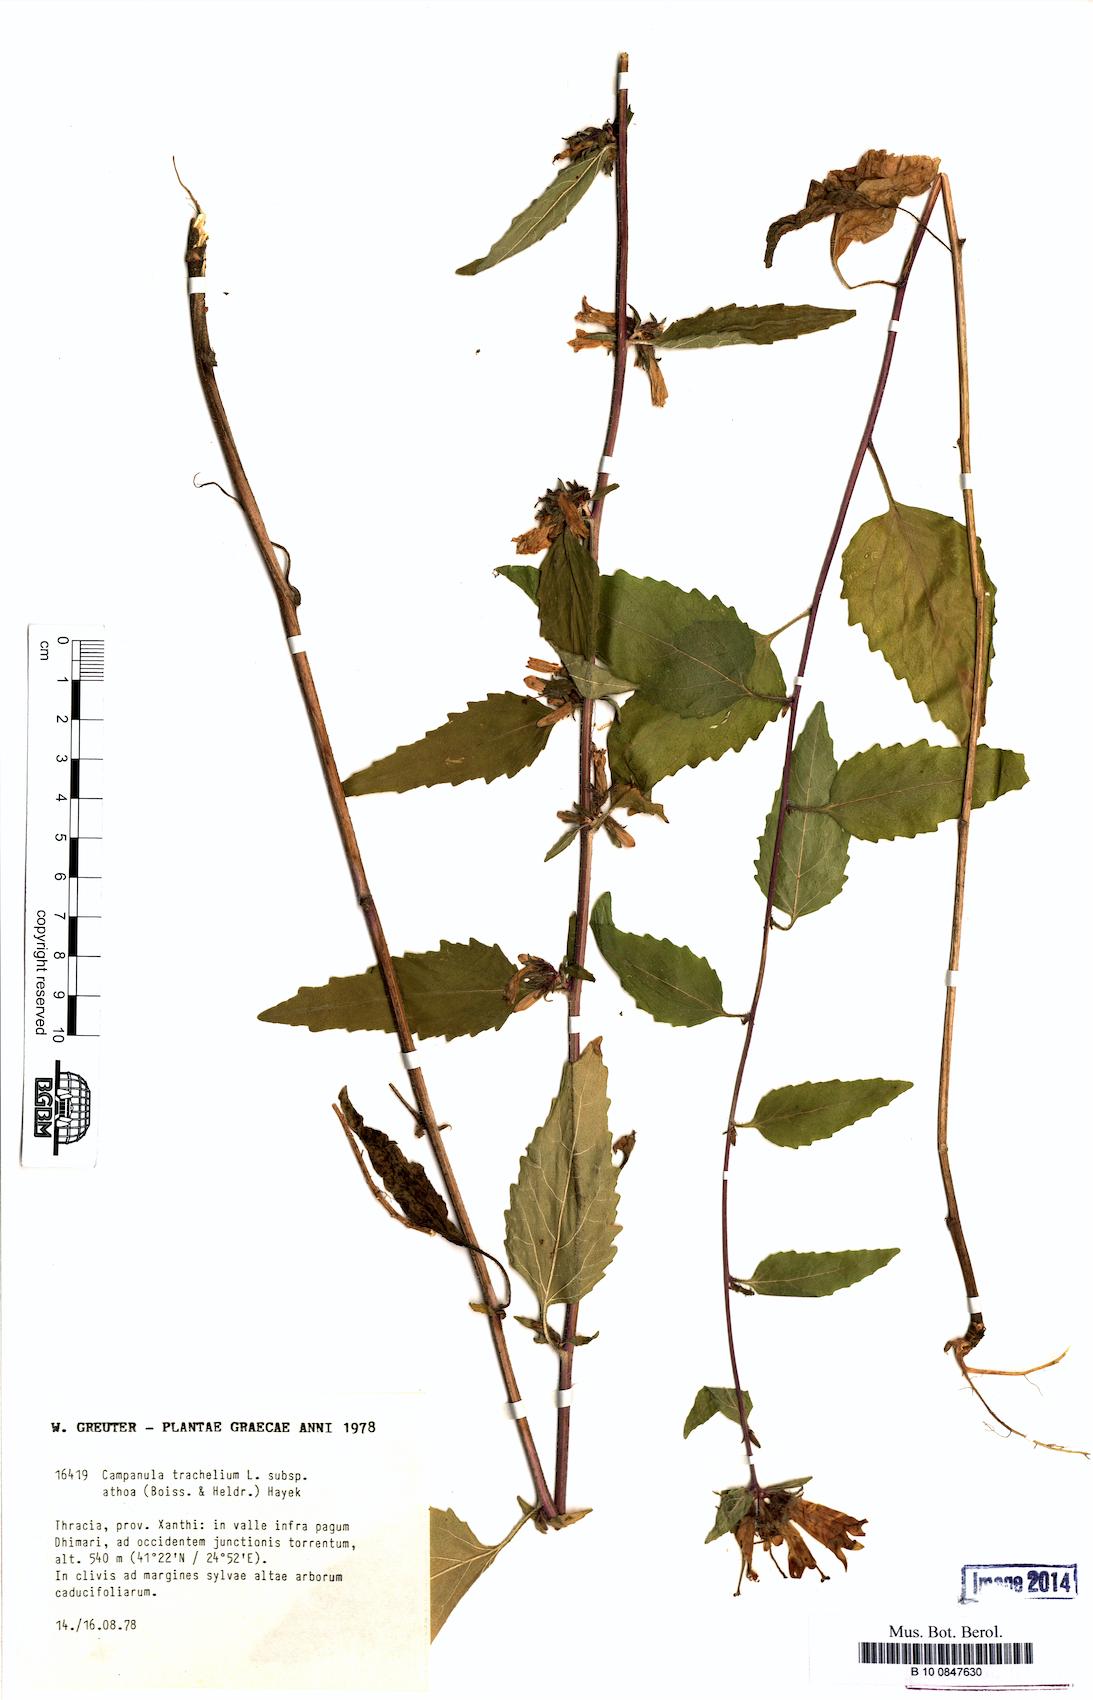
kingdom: Plantae
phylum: Tracheophyta
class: Magnoliopsida
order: Asterales
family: Campanulaceae
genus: Campanula
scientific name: Campanula trachelium
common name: Nettle-leaved bellflower
